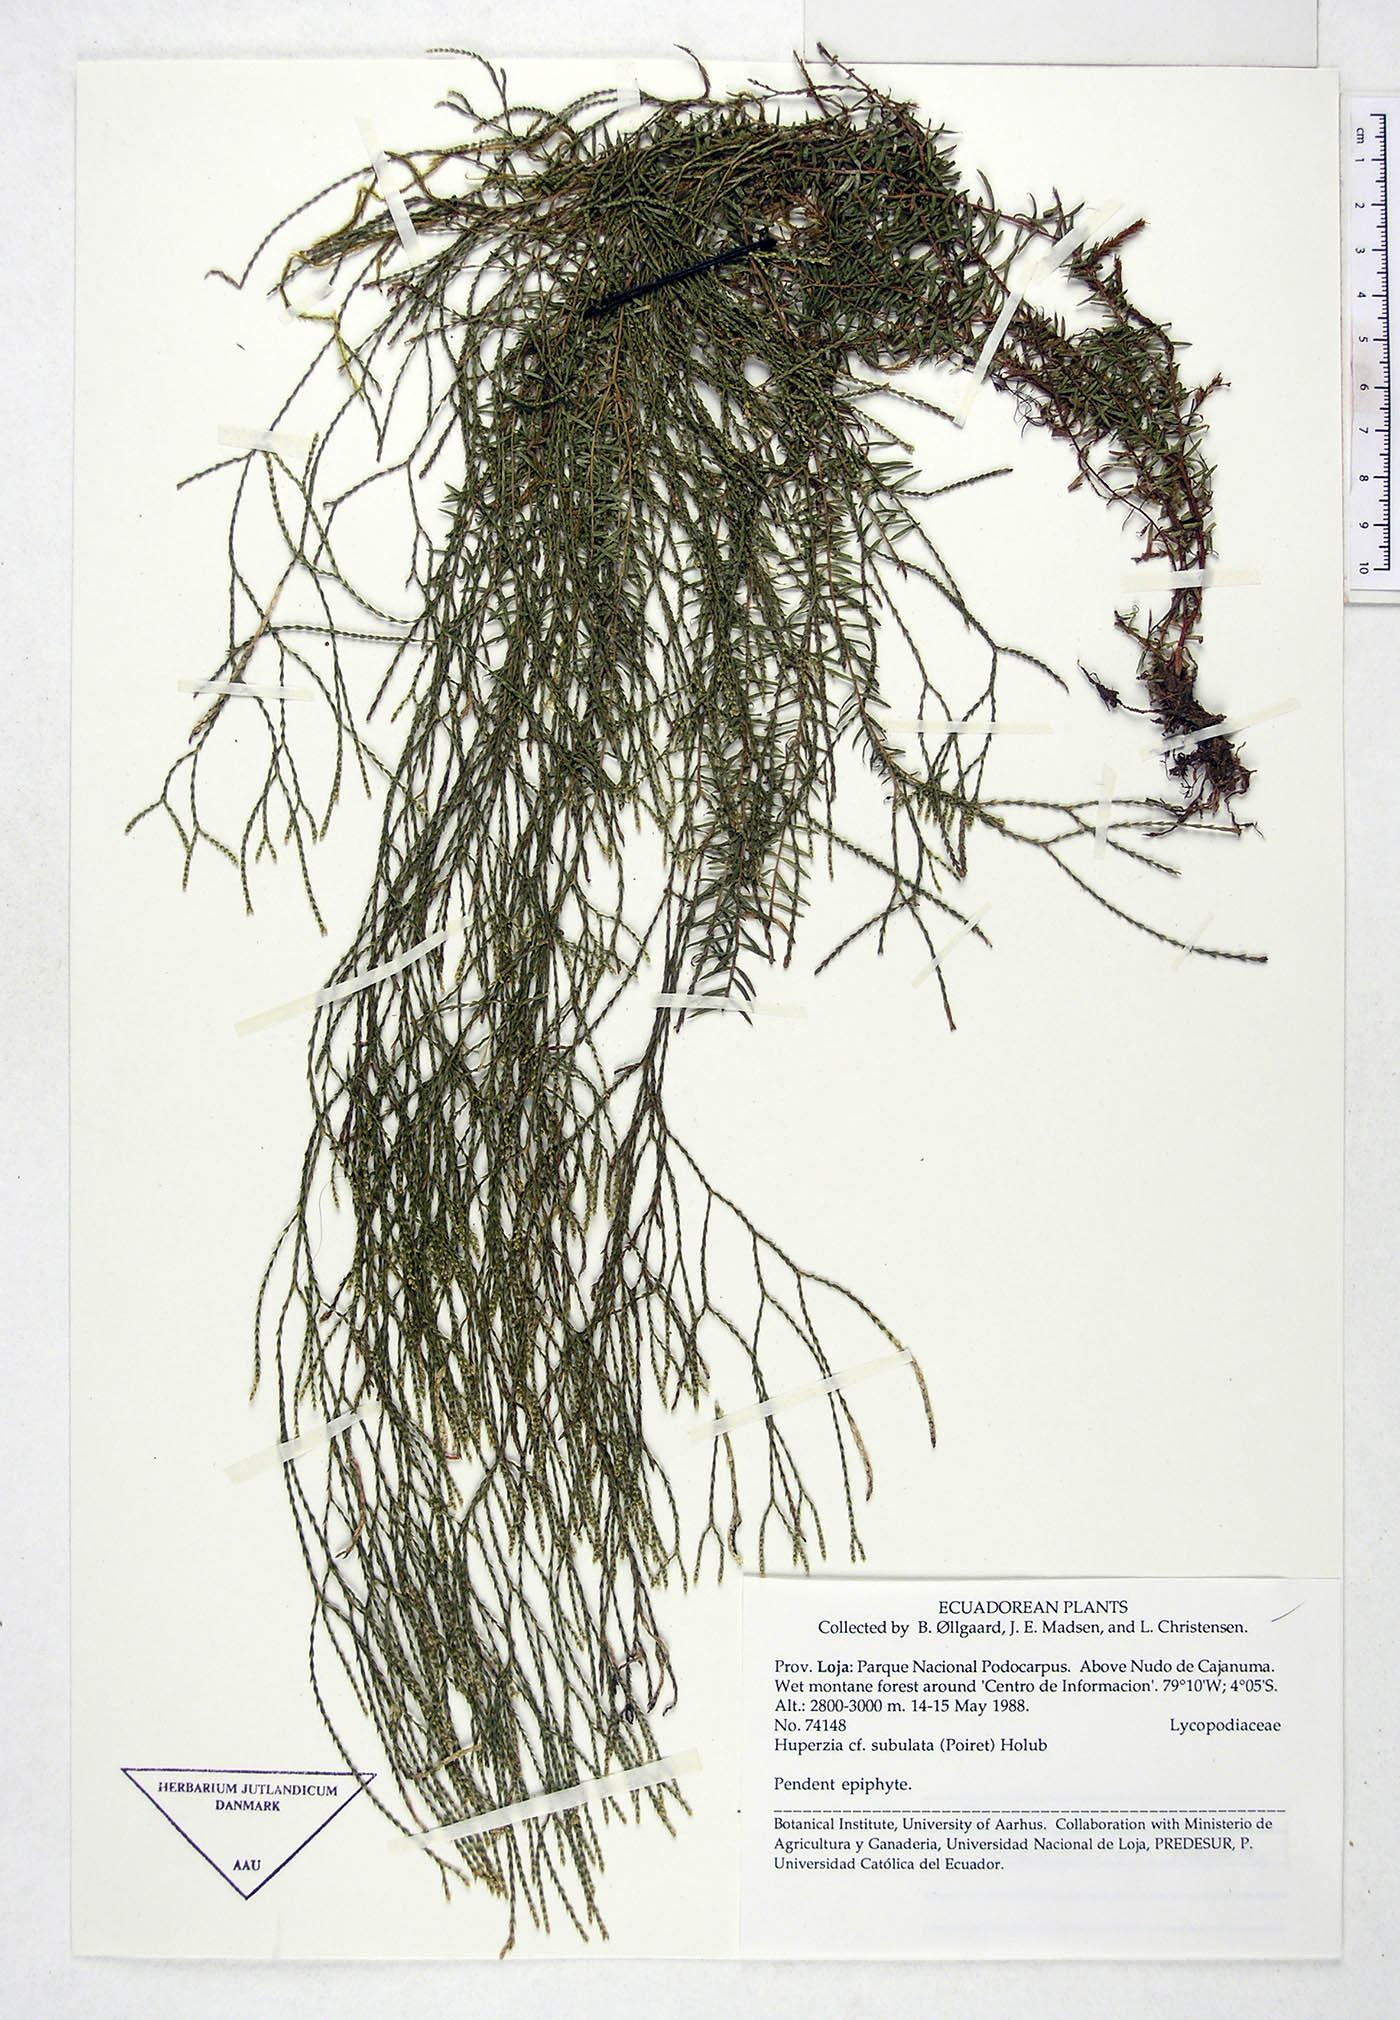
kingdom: Plantae
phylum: Tracheophyta
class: Lycopodiopsida
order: Lycopodiales
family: Lycopodiaceae
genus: Phlegmariurus
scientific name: Phlegmariurus subulatus
